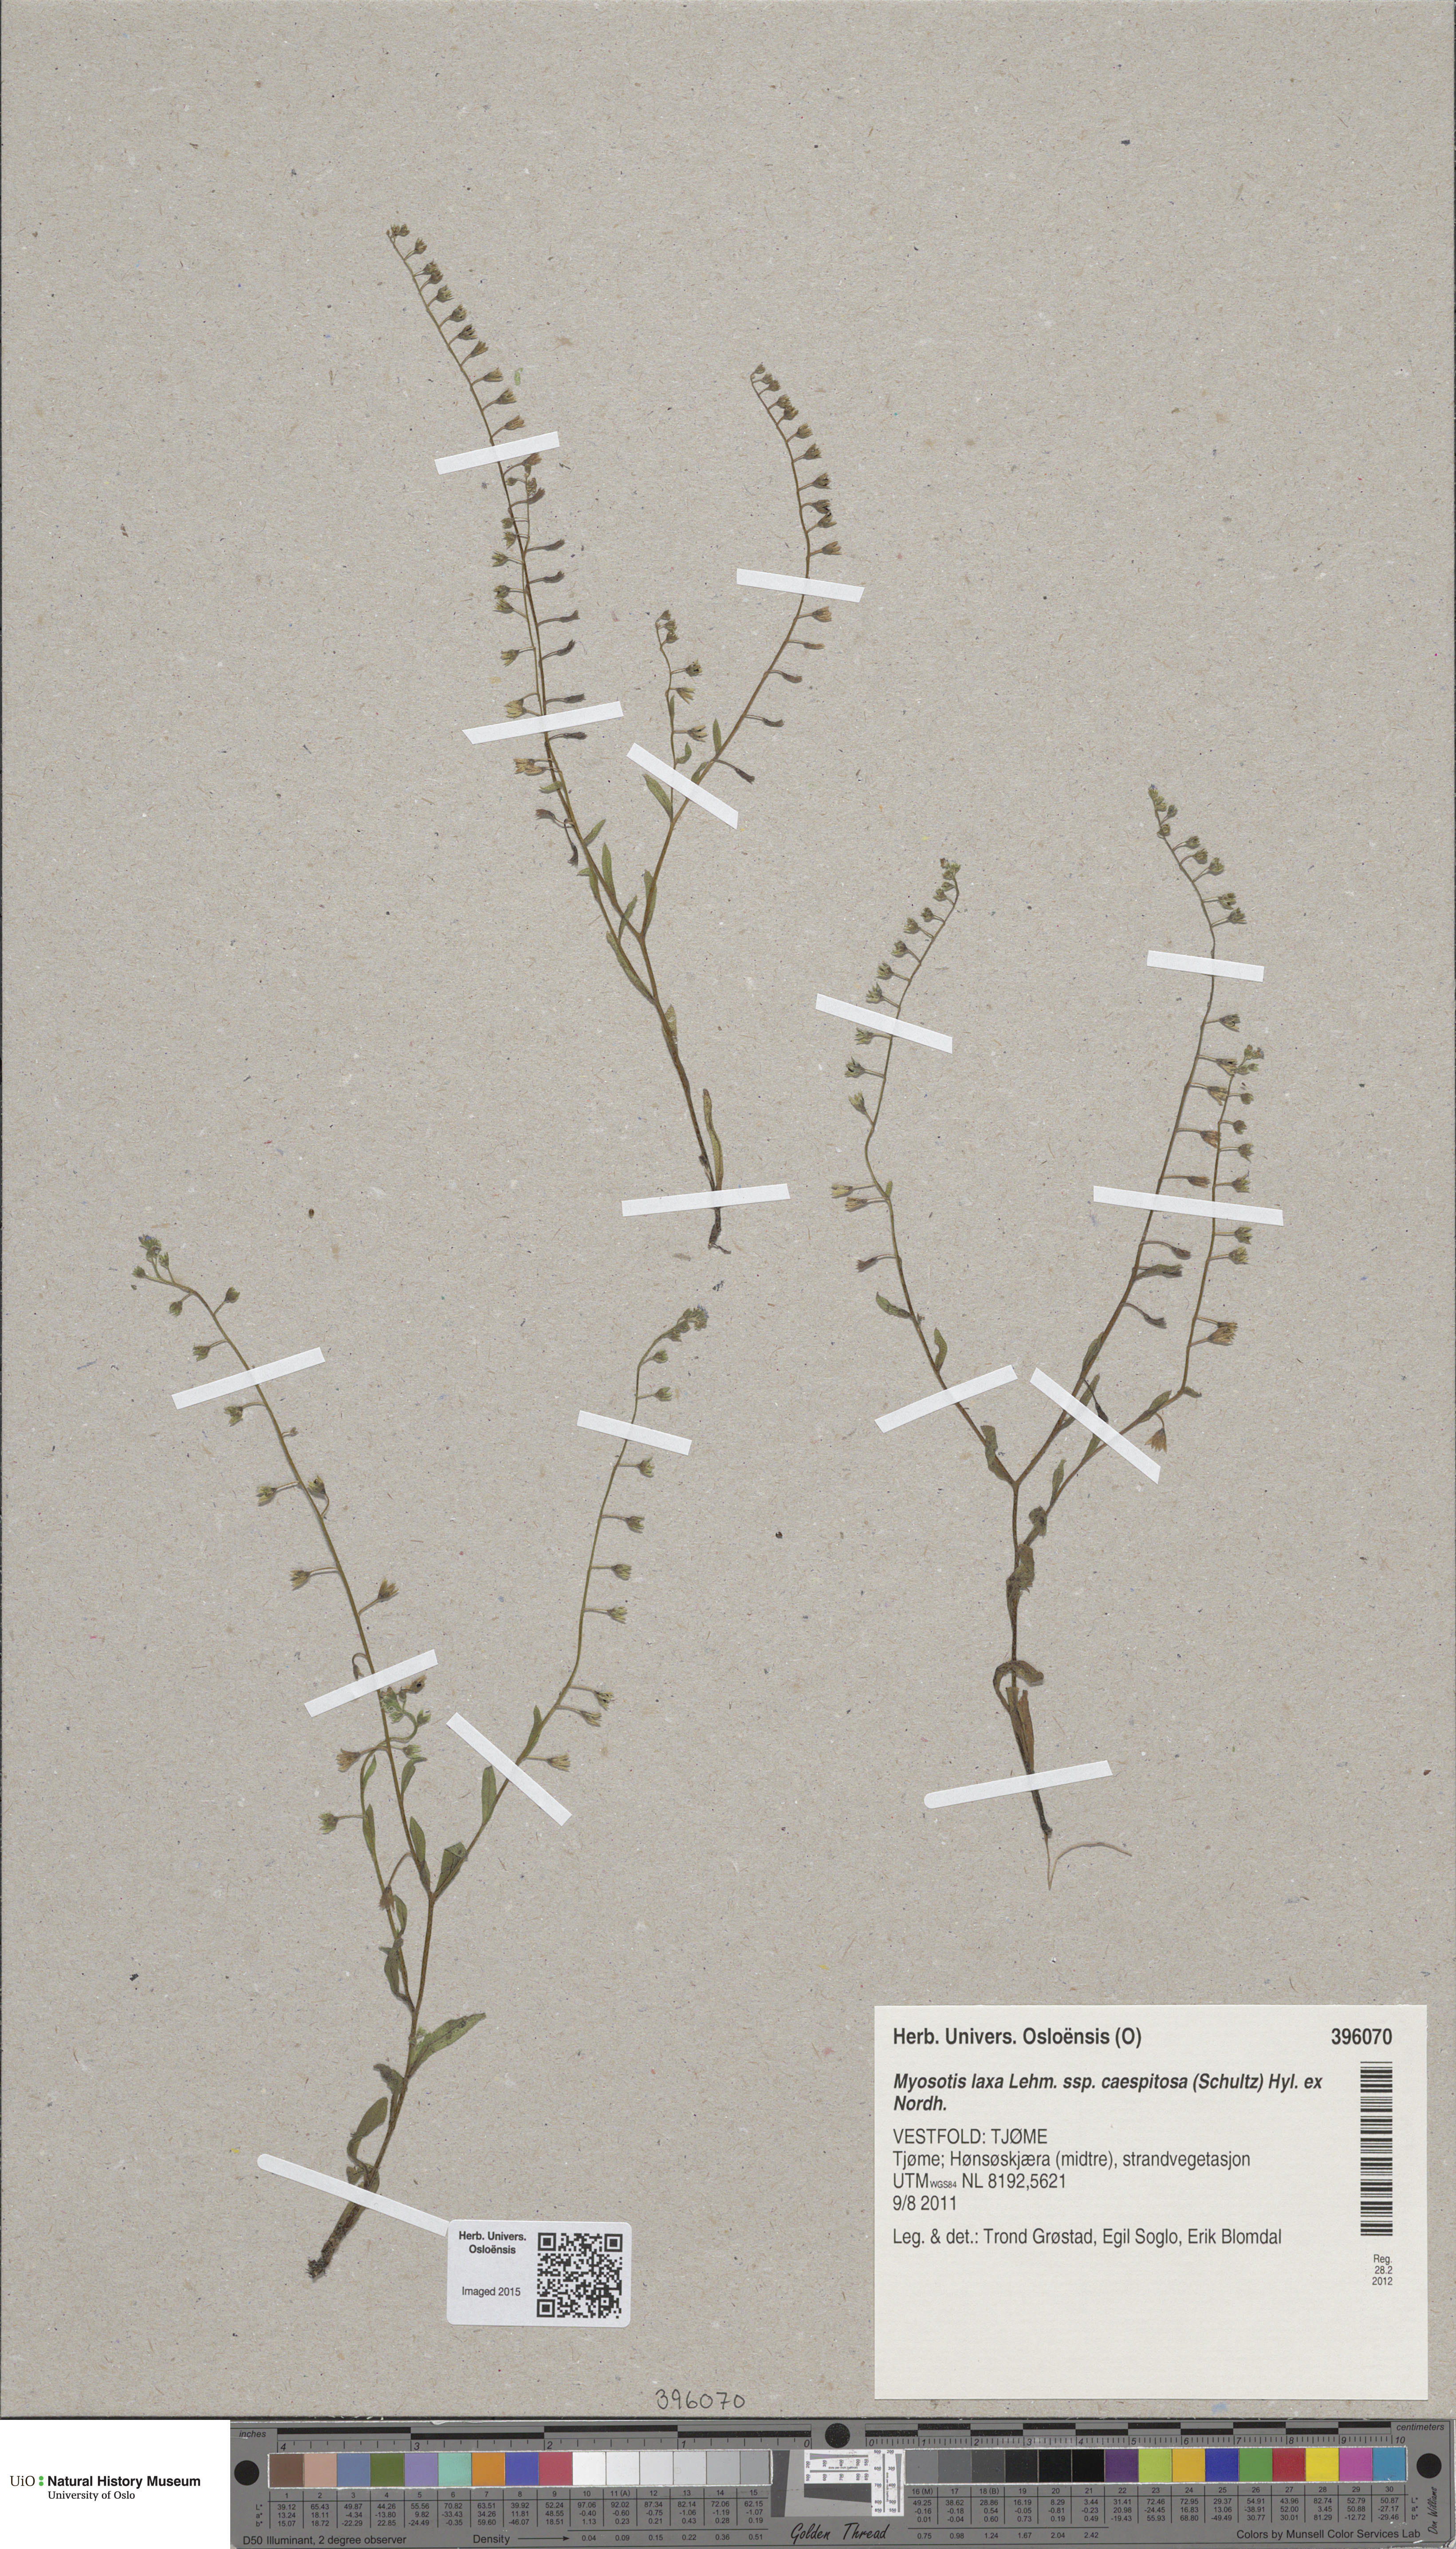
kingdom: Plantae
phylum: Tracheophyta
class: Magnoliopsida
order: Boraginales
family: Boraginaceae
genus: Myosotis
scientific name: Myosotis laxa
